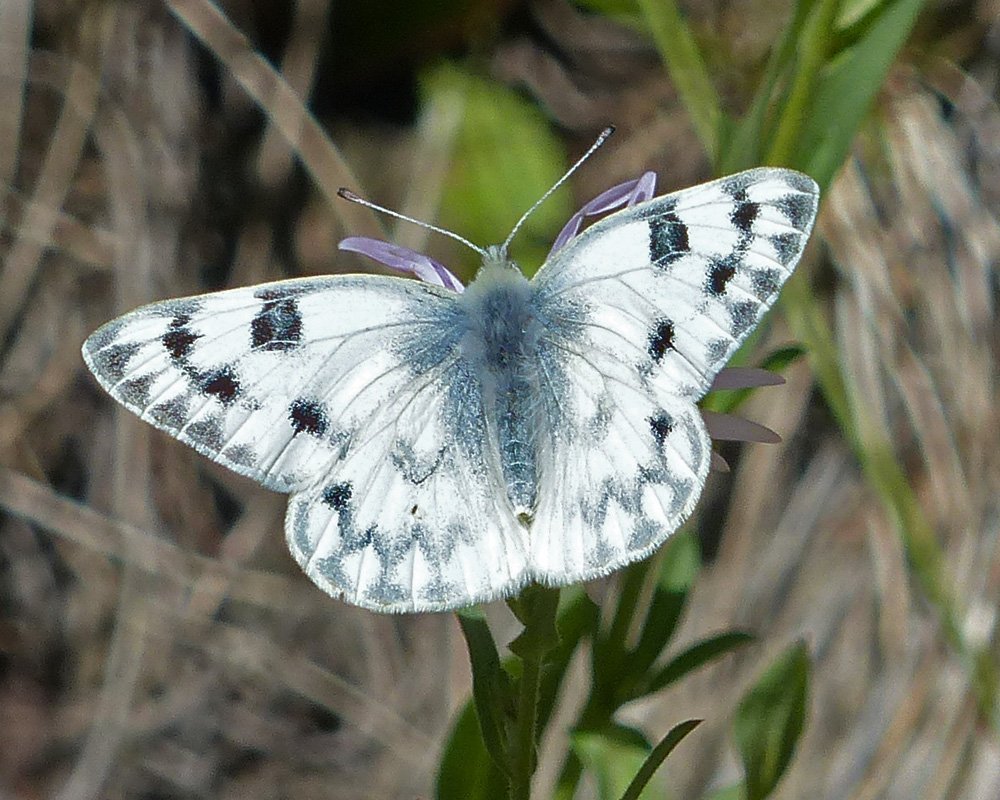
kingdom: Animalia
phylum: Arthropoda
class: Insecta
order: Lepidoptera
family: Pieridae
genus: Pontia
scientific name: Pontia protodice
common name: Checkered White
